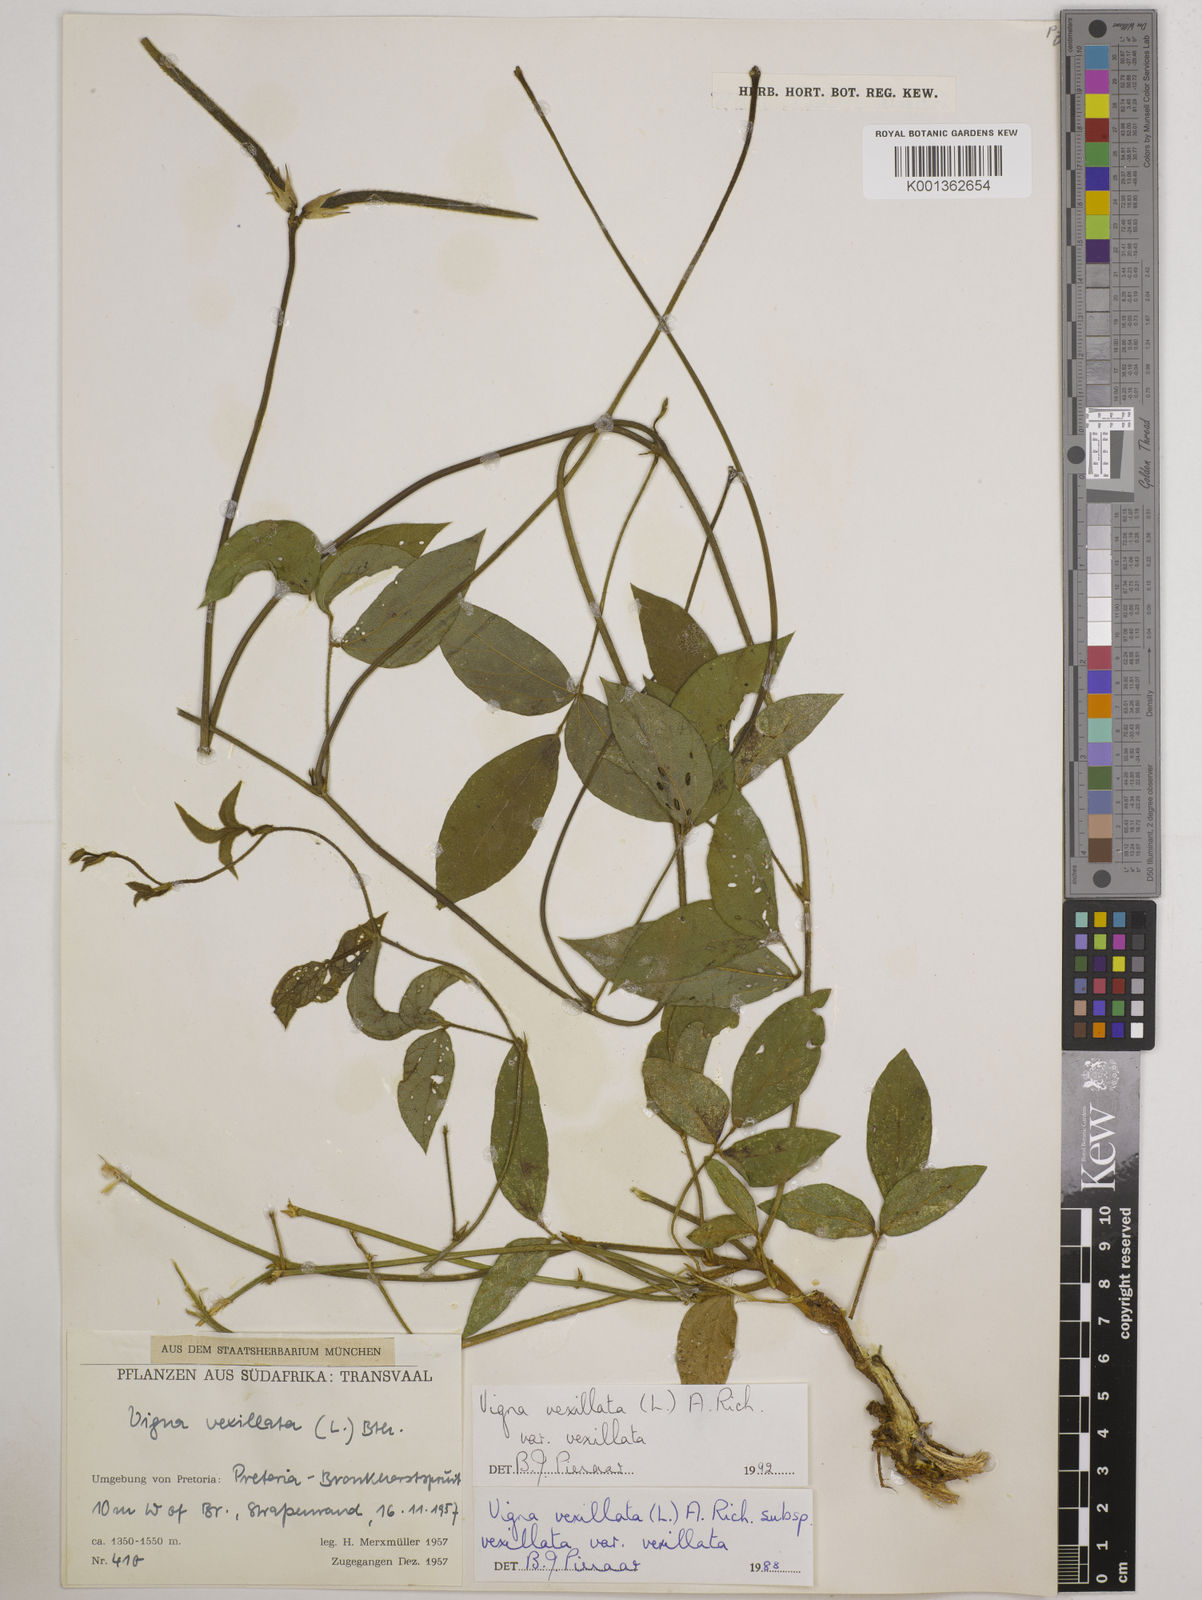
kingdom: Plantae
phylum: Tracheophyta
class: Magnoliopsida
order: Fabales
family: Fabaceae
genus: Vigna
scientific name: Vigna vexillata
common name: Zombi pea
